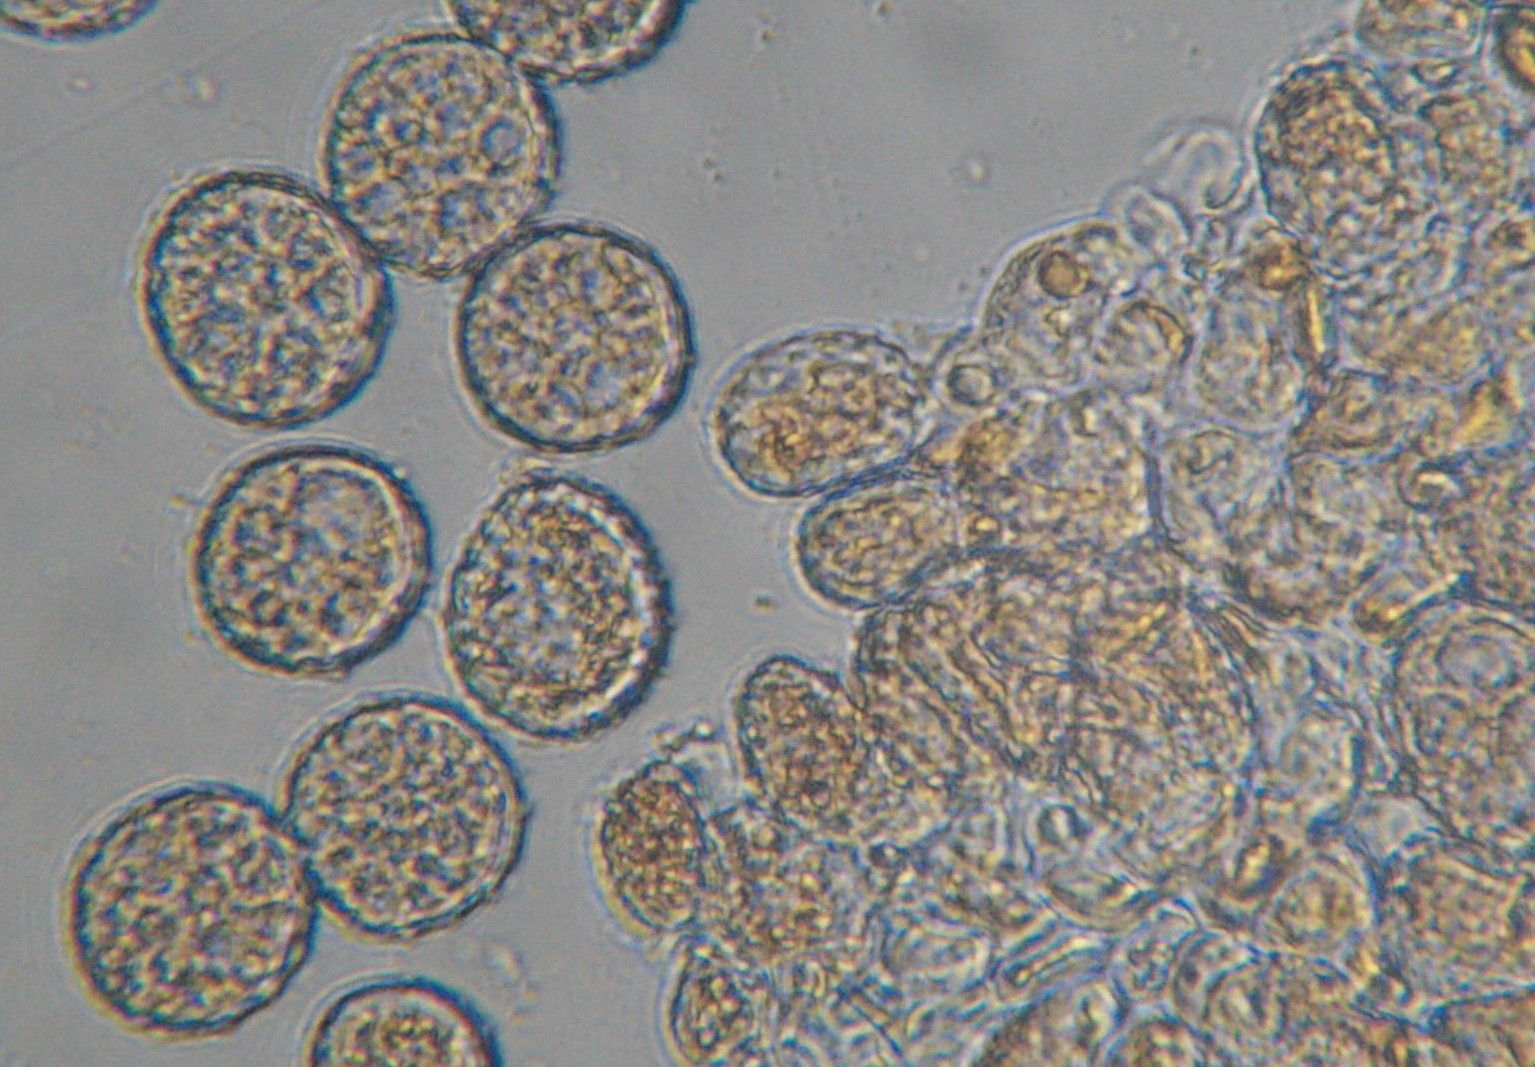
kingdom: Fungi
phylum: Basidiomycota
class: Pucciniomycetes
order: Pucciniales
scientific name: Pucciniales
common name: rustsvampeordenen
